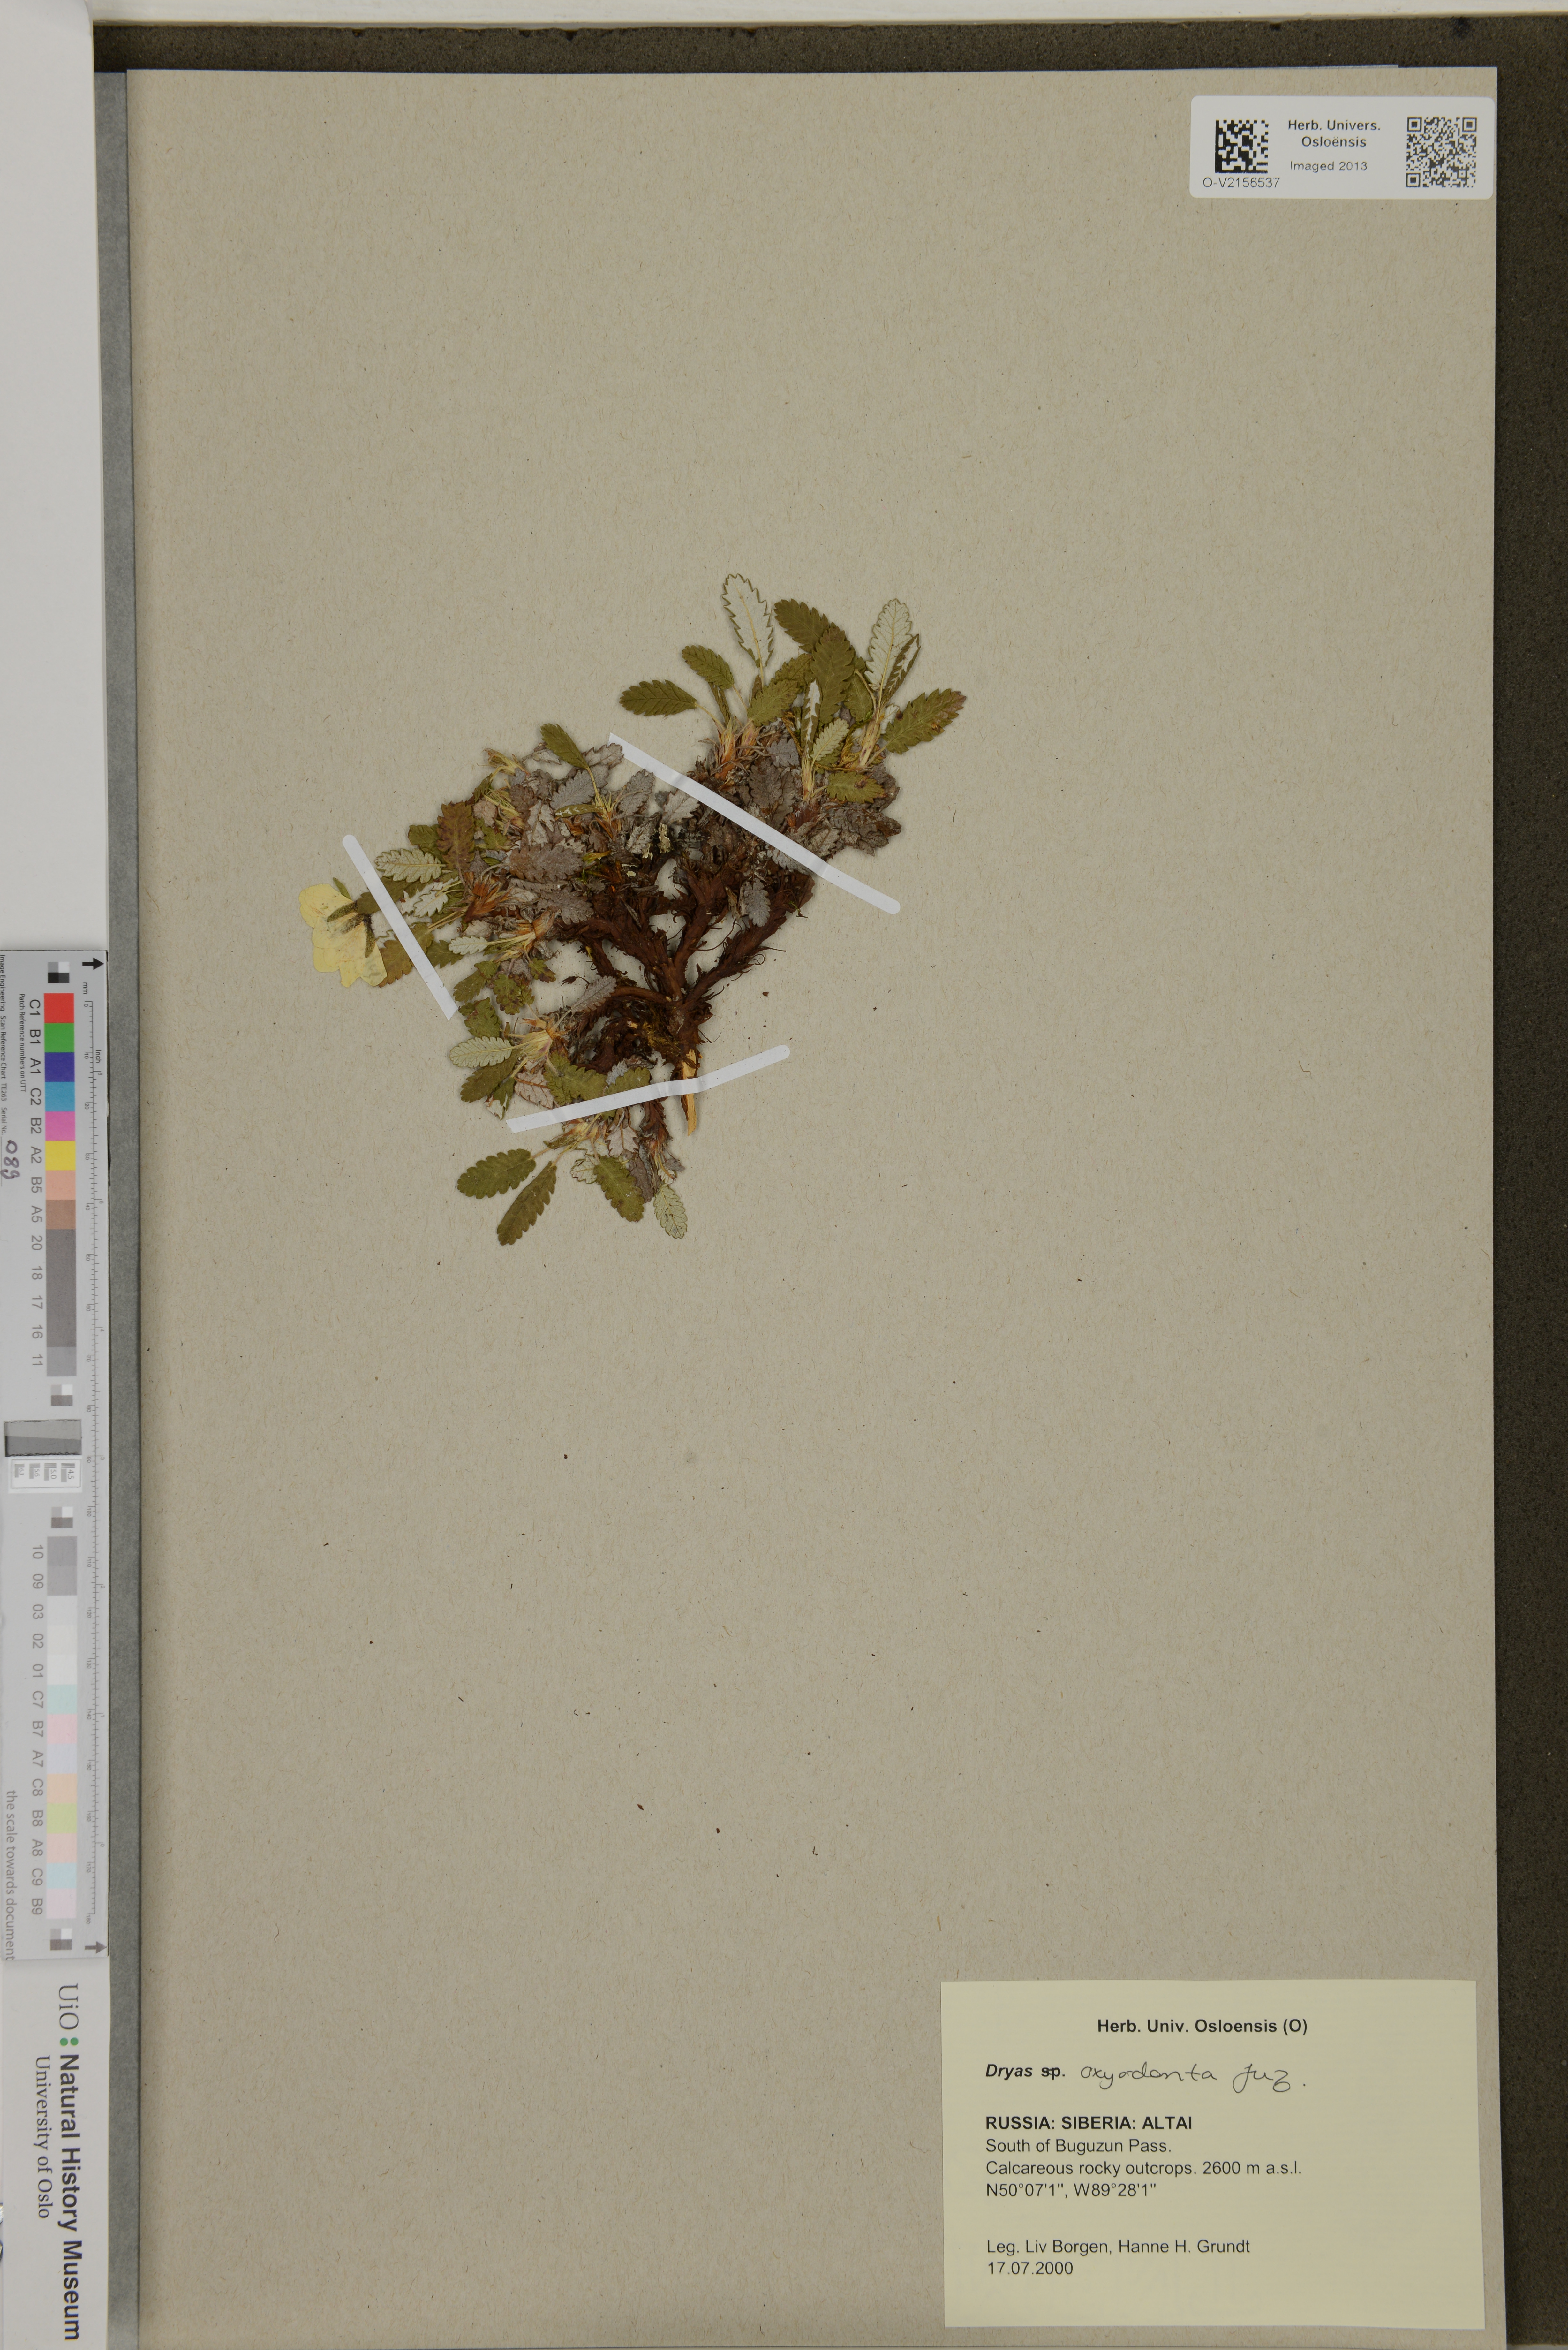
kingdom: Plantae
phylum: Tracheophyta
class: Magnoliopsida
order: Rosales
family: Rosaceae
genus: Dryas
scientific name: Dryas octopetala
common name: Eight-petal mountain-avens
